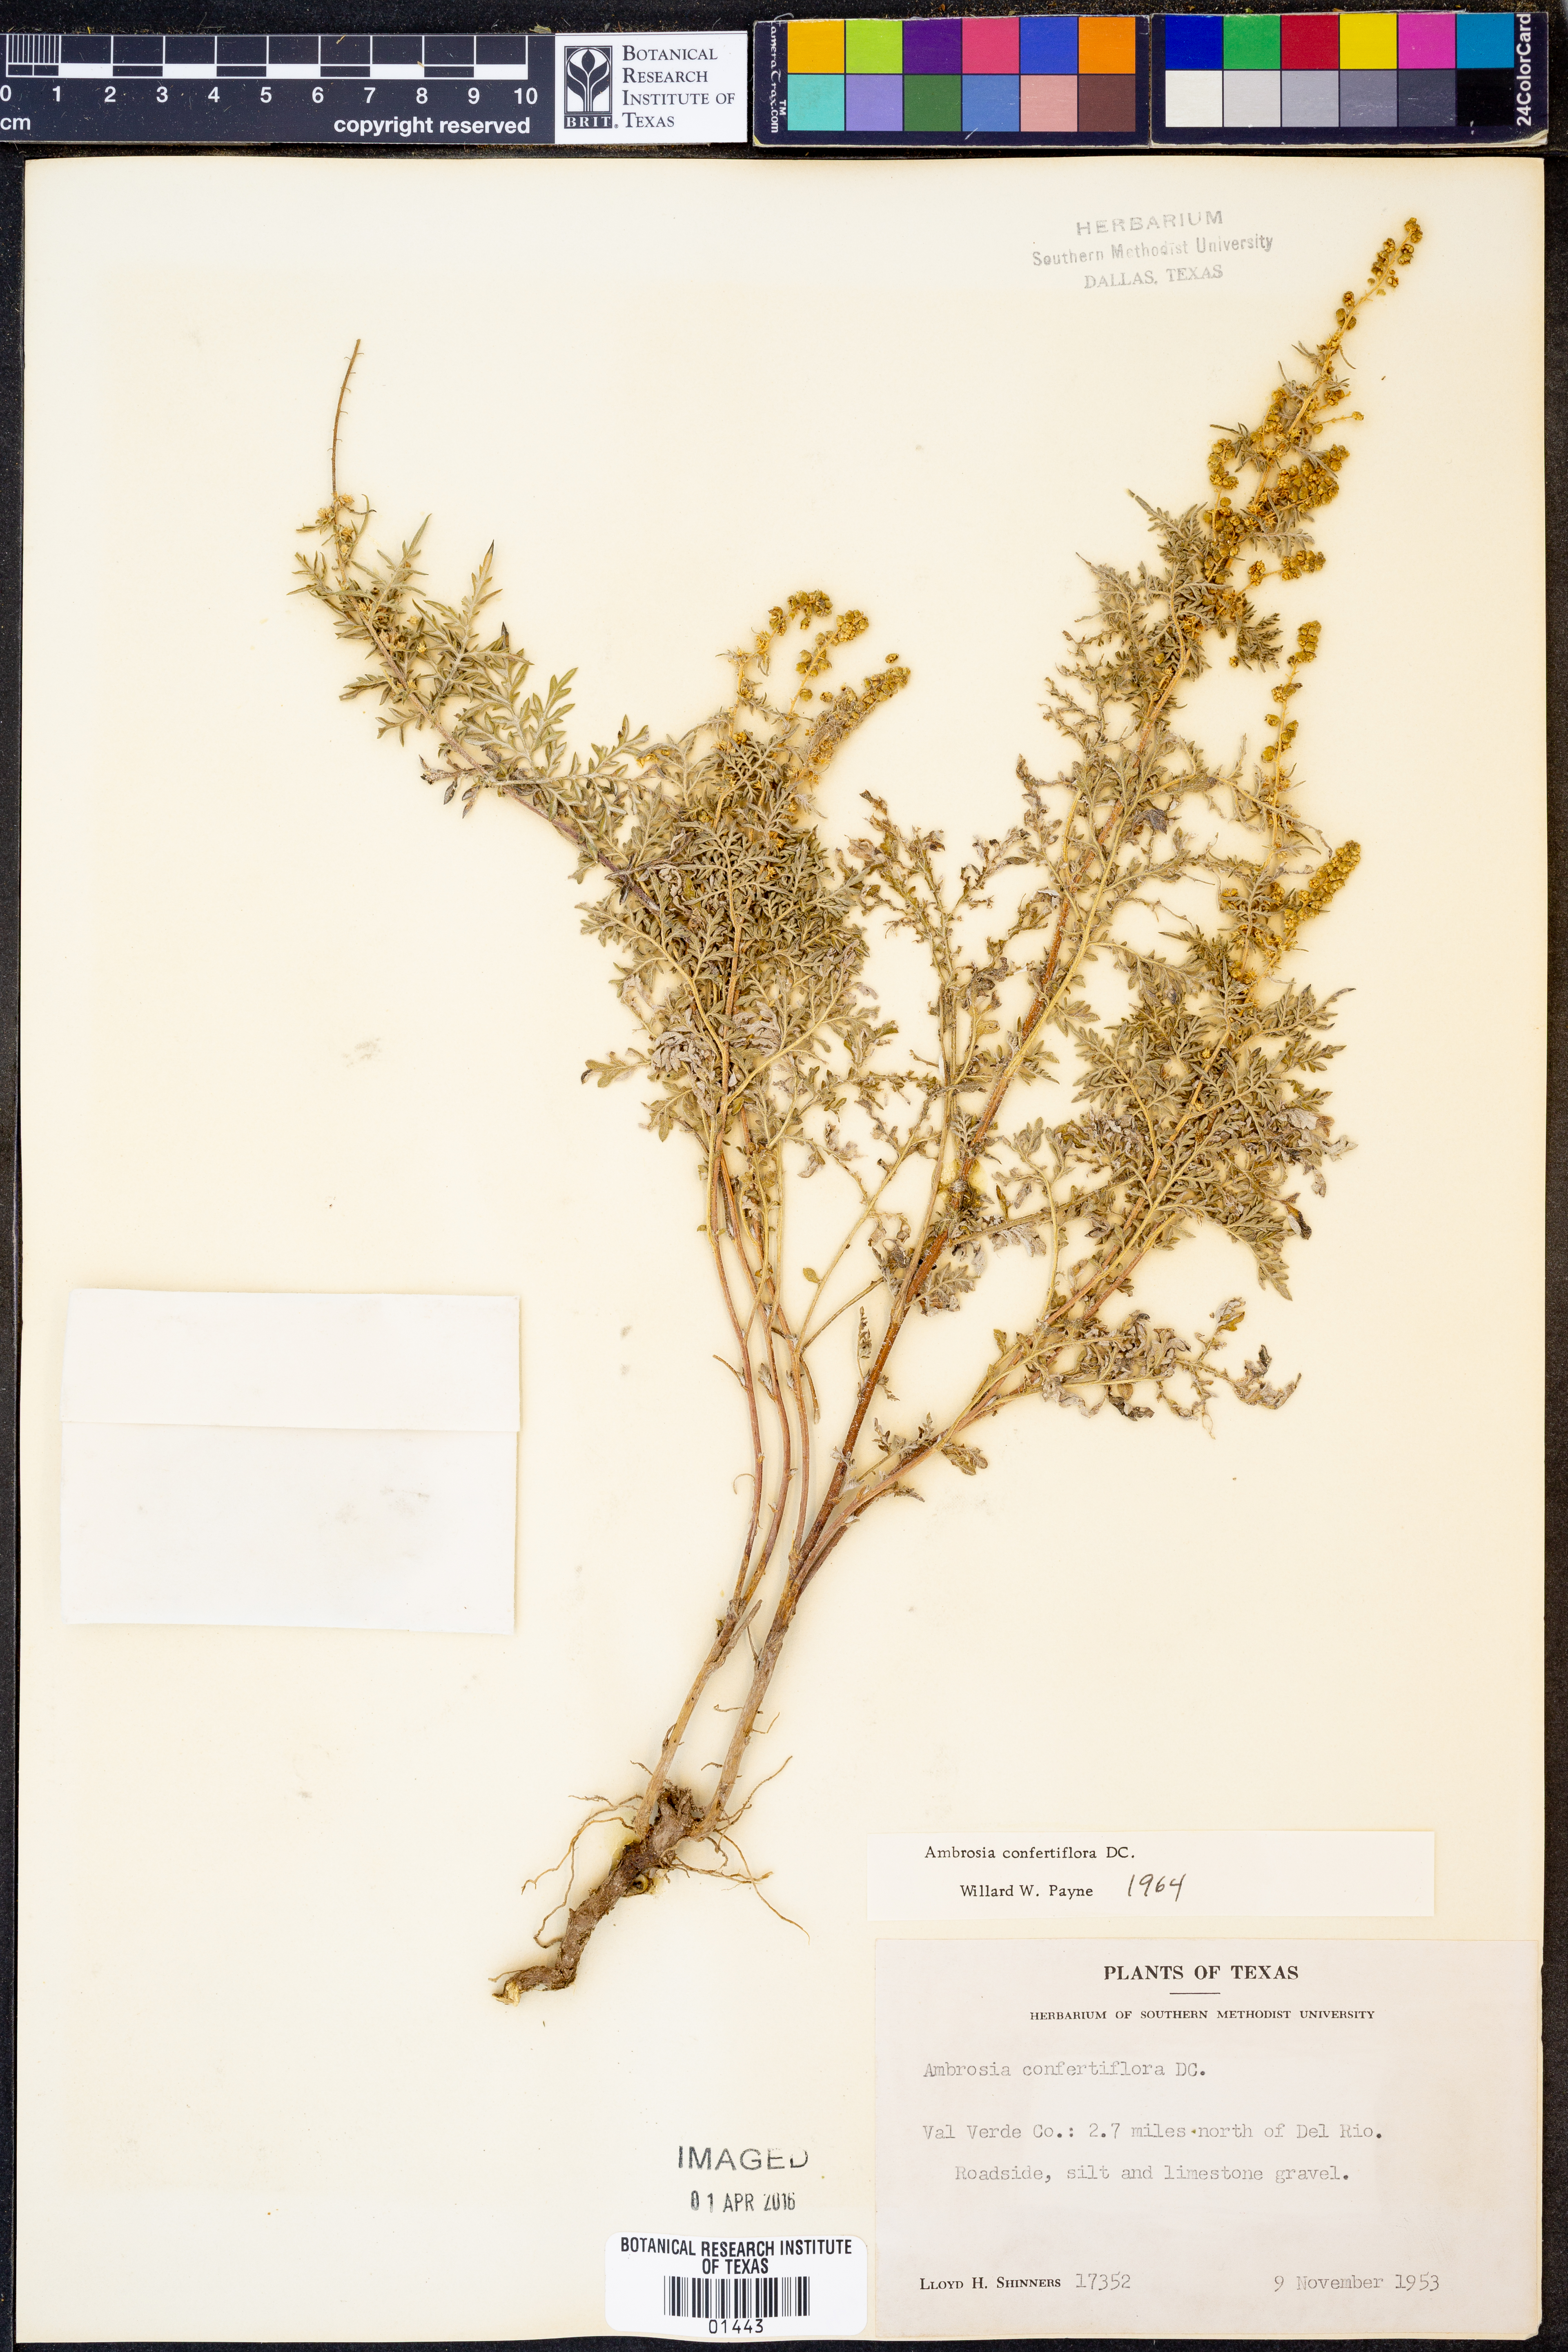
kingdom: Plantae
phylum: Tracheophyta
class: Magnoliopsida
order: Asterales
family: Asteraceae
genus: Ambrosia
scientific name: Ambrosia confertiflora
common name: Bur ragweed
